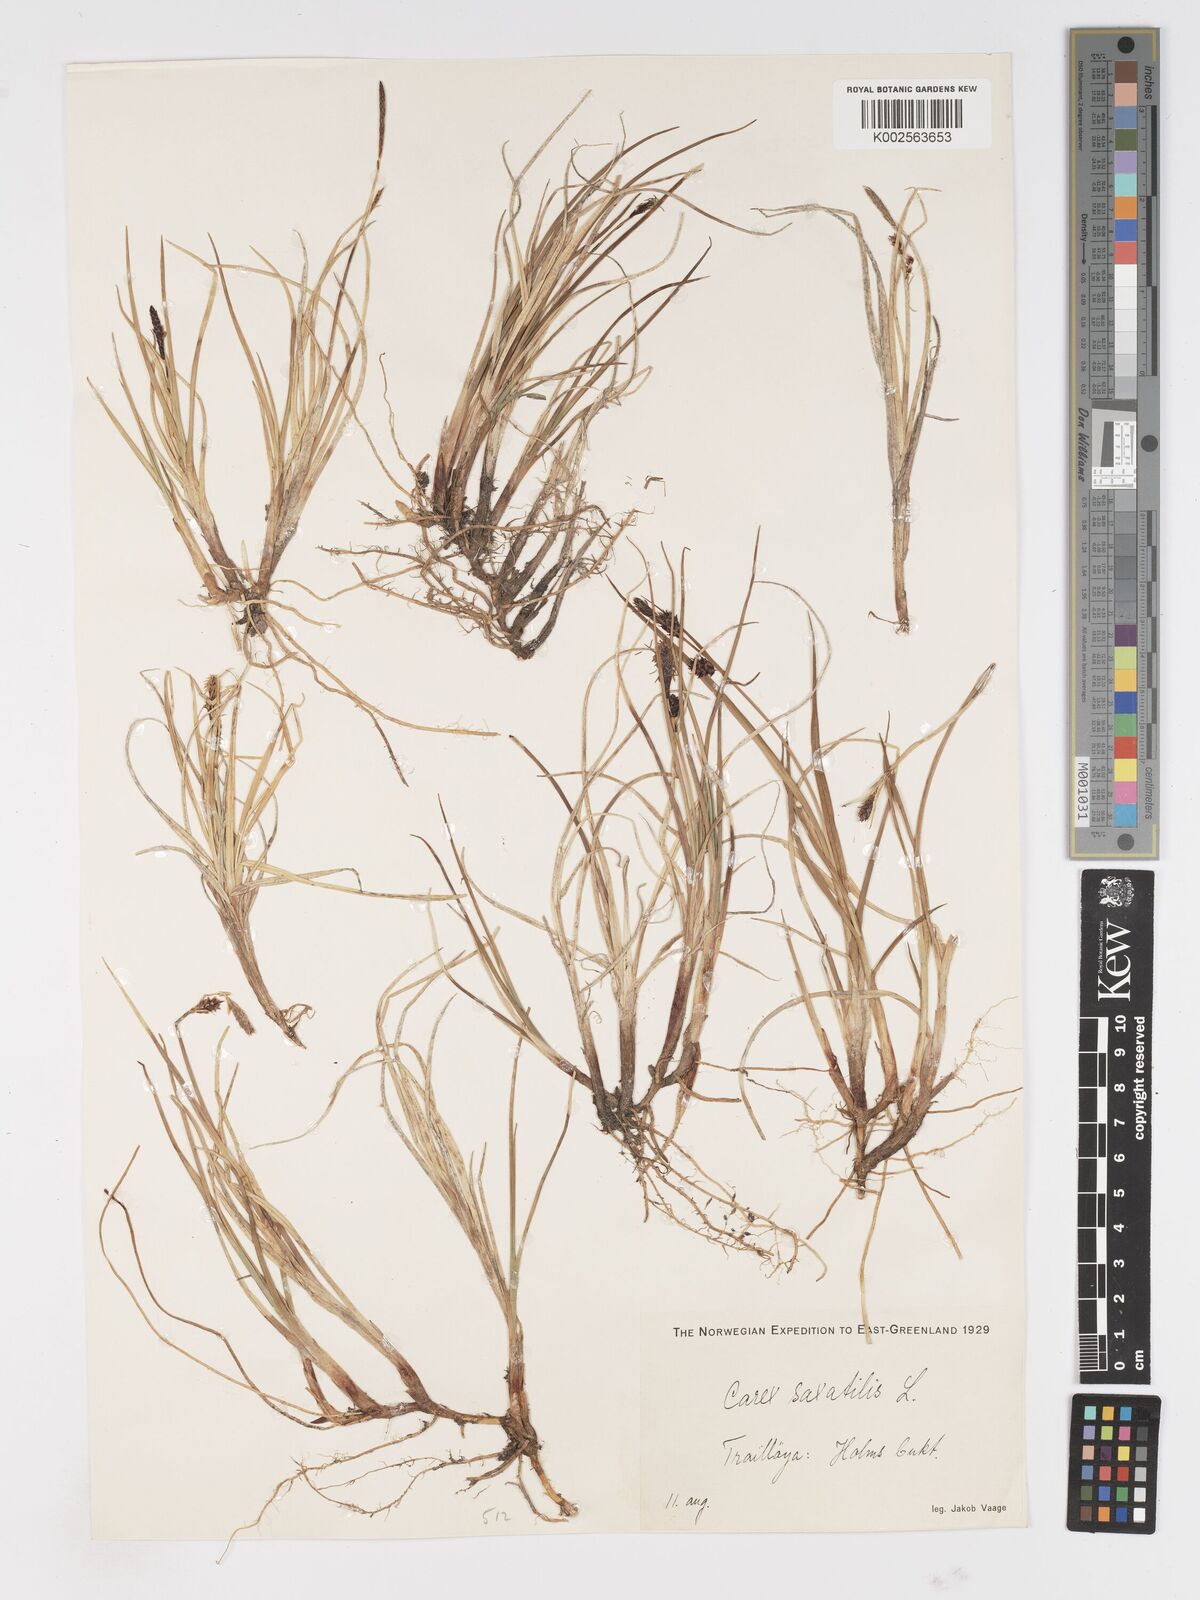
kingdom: Plantae
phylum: Tracheophyta
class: Liliopsida
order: Poales
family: Cyperaceae
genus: Carex
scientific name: Carex saxatilis
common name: Russet sedge
